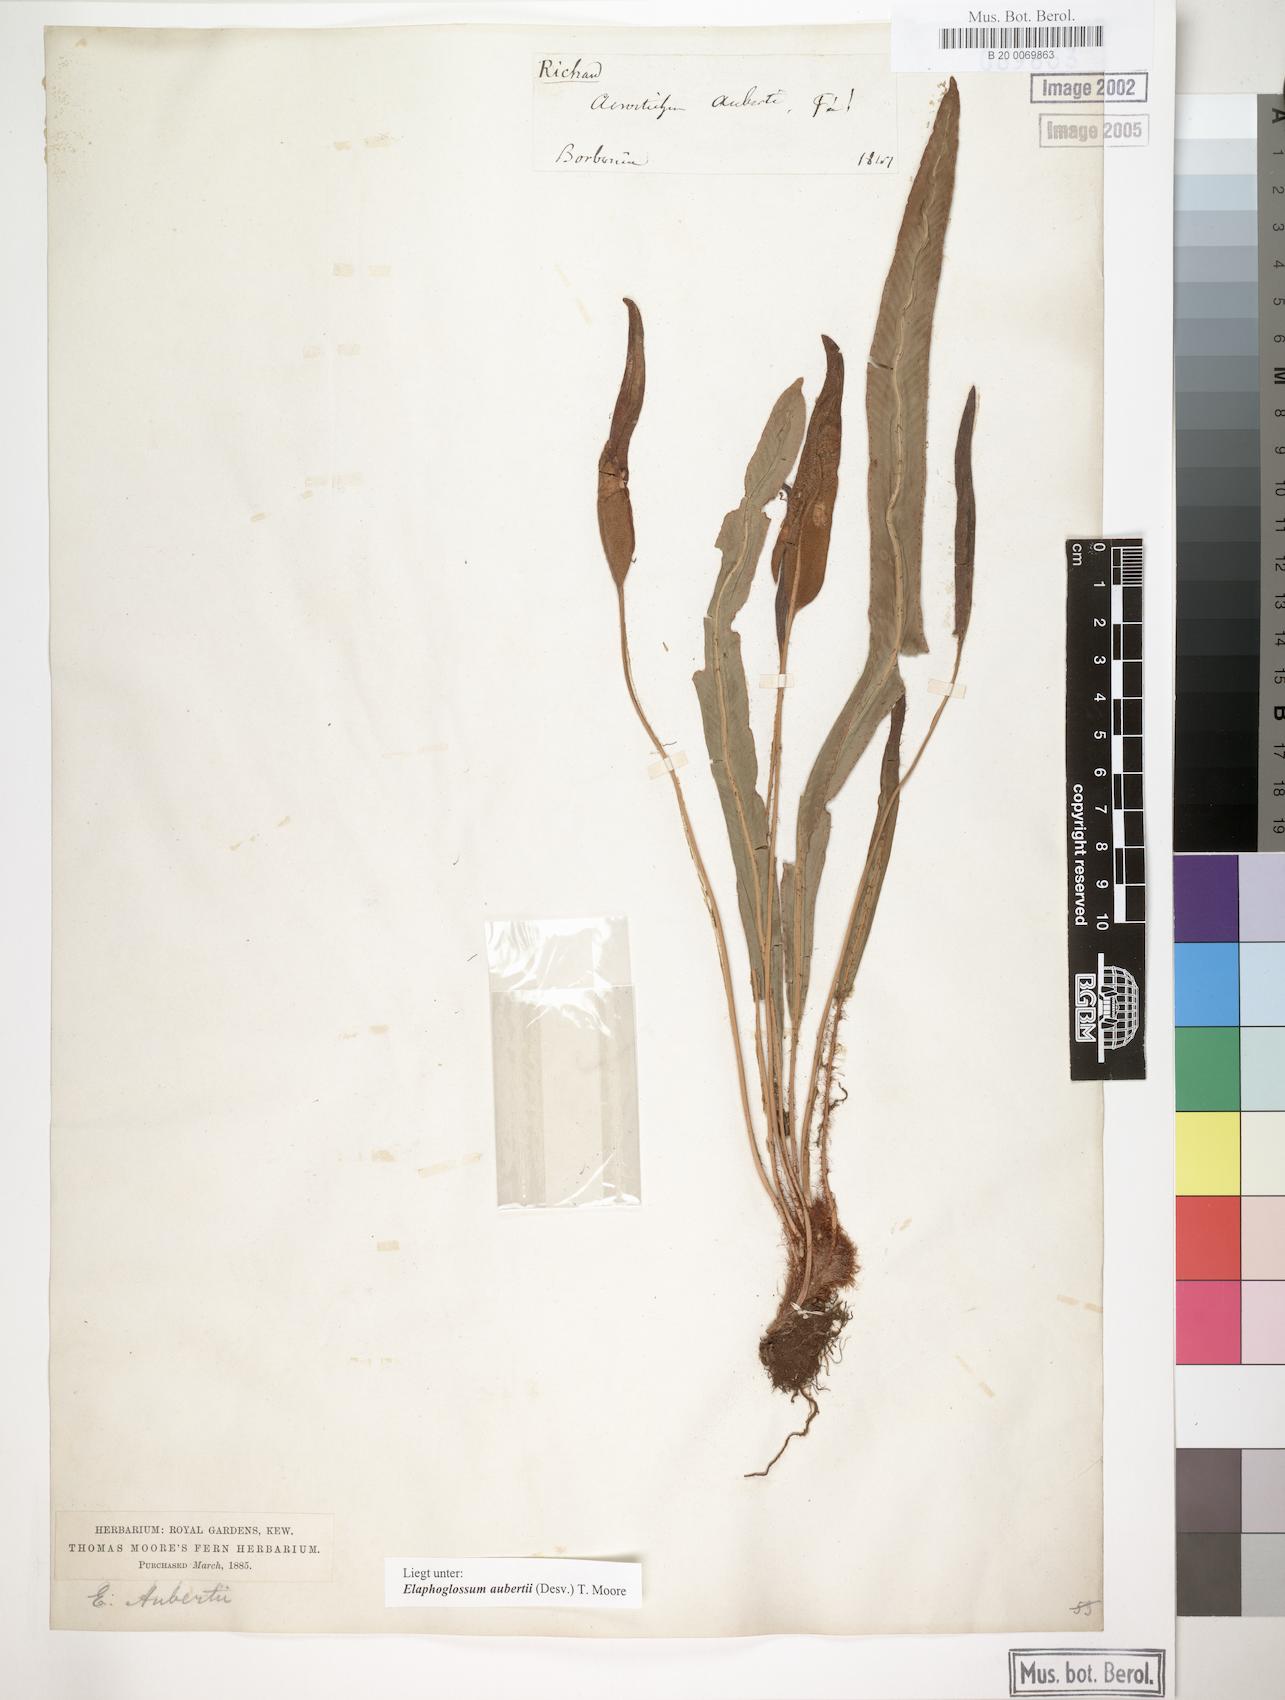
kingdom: Plantae
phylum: Tracheophyta
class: Polypodiopsida
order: Polypodiales
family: Dryopteridaceae
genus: Elaphoglossum
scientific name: Elaphoglossum aubertii
